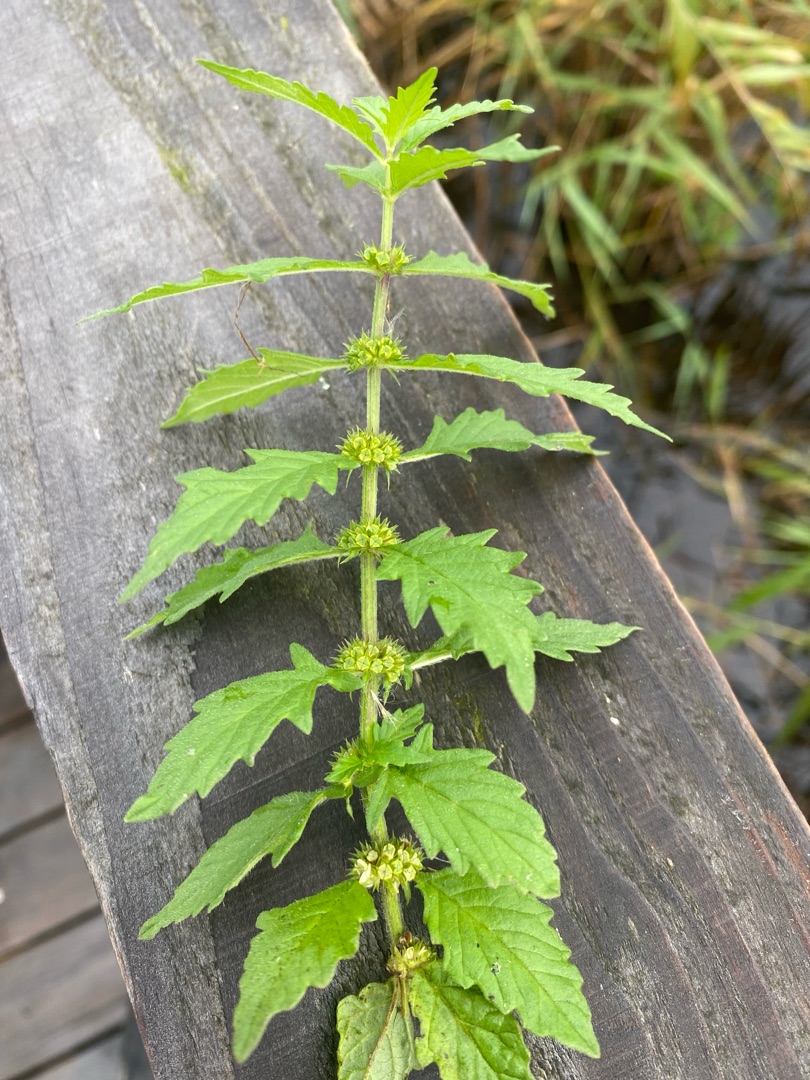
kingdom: Plantae
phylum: Tracheophyta
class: Magnoliopsida
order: Lamiales
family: Lamiaceae
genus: Lycopus
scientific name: Lycopus europaeus
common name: Sværtevæld
